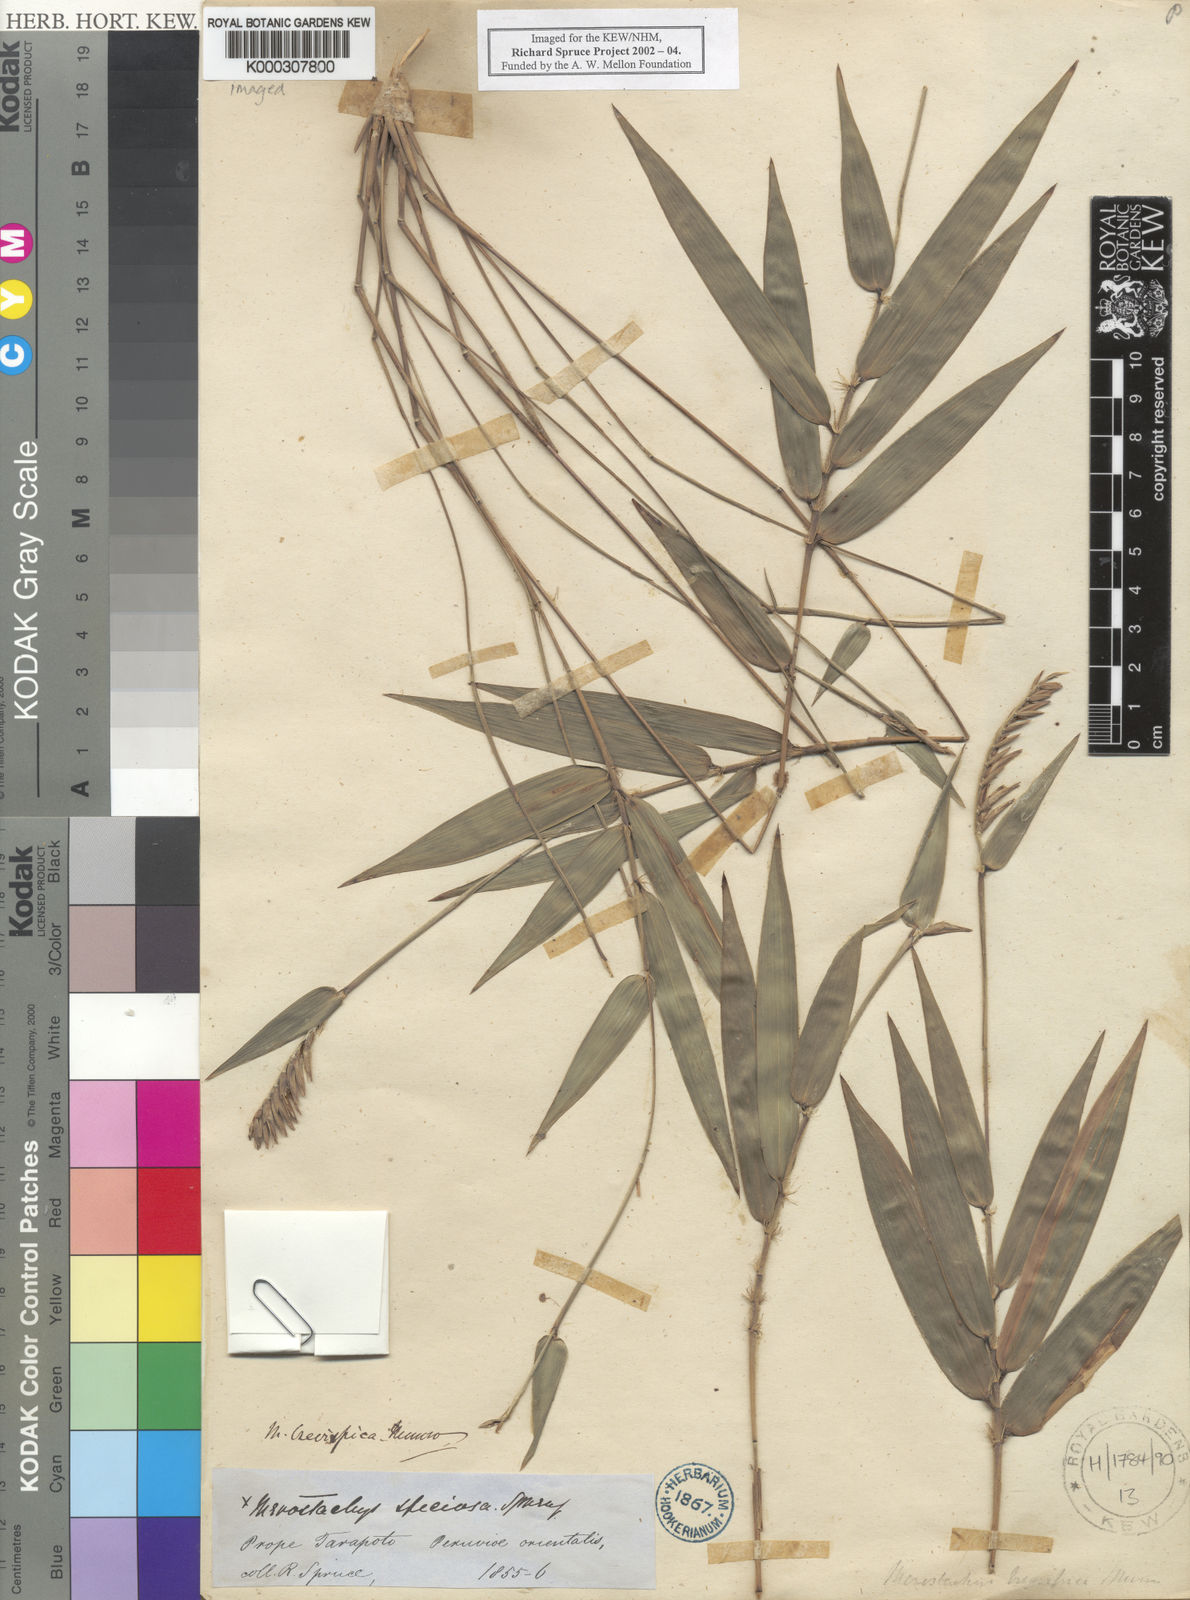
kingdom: Plantae
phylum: Tracheophyta
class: Liliopsida
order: Poales
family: Poaceae
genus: Merostachys
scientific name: Merostachys brevispica
